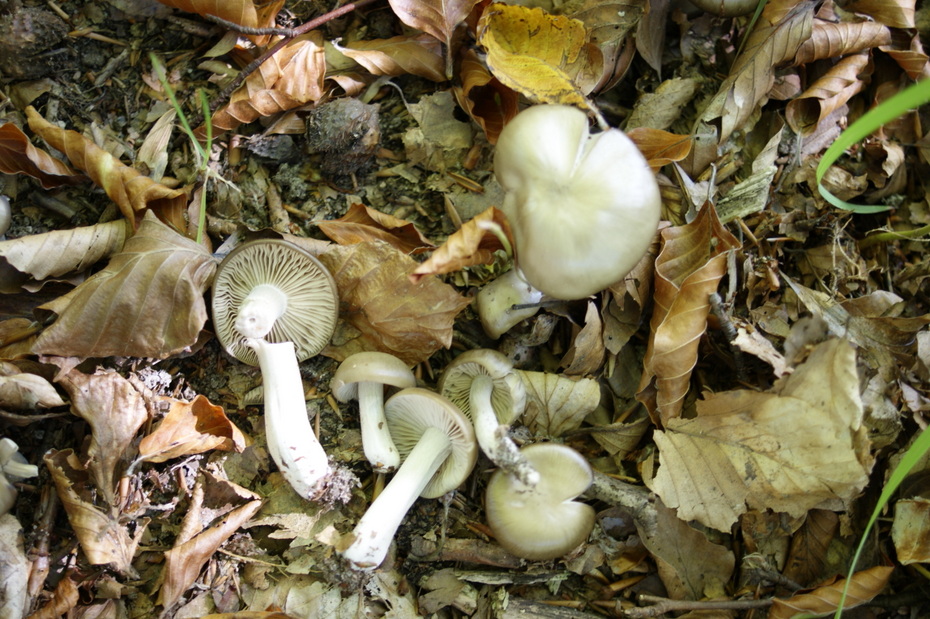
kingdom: Fungi
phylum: Basidiomycota
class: Agaricomycetes
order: Agaricales
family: Entolomataceae
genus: Entoloma
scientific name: Entoloma rhodopolium
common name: skov-rødblad
